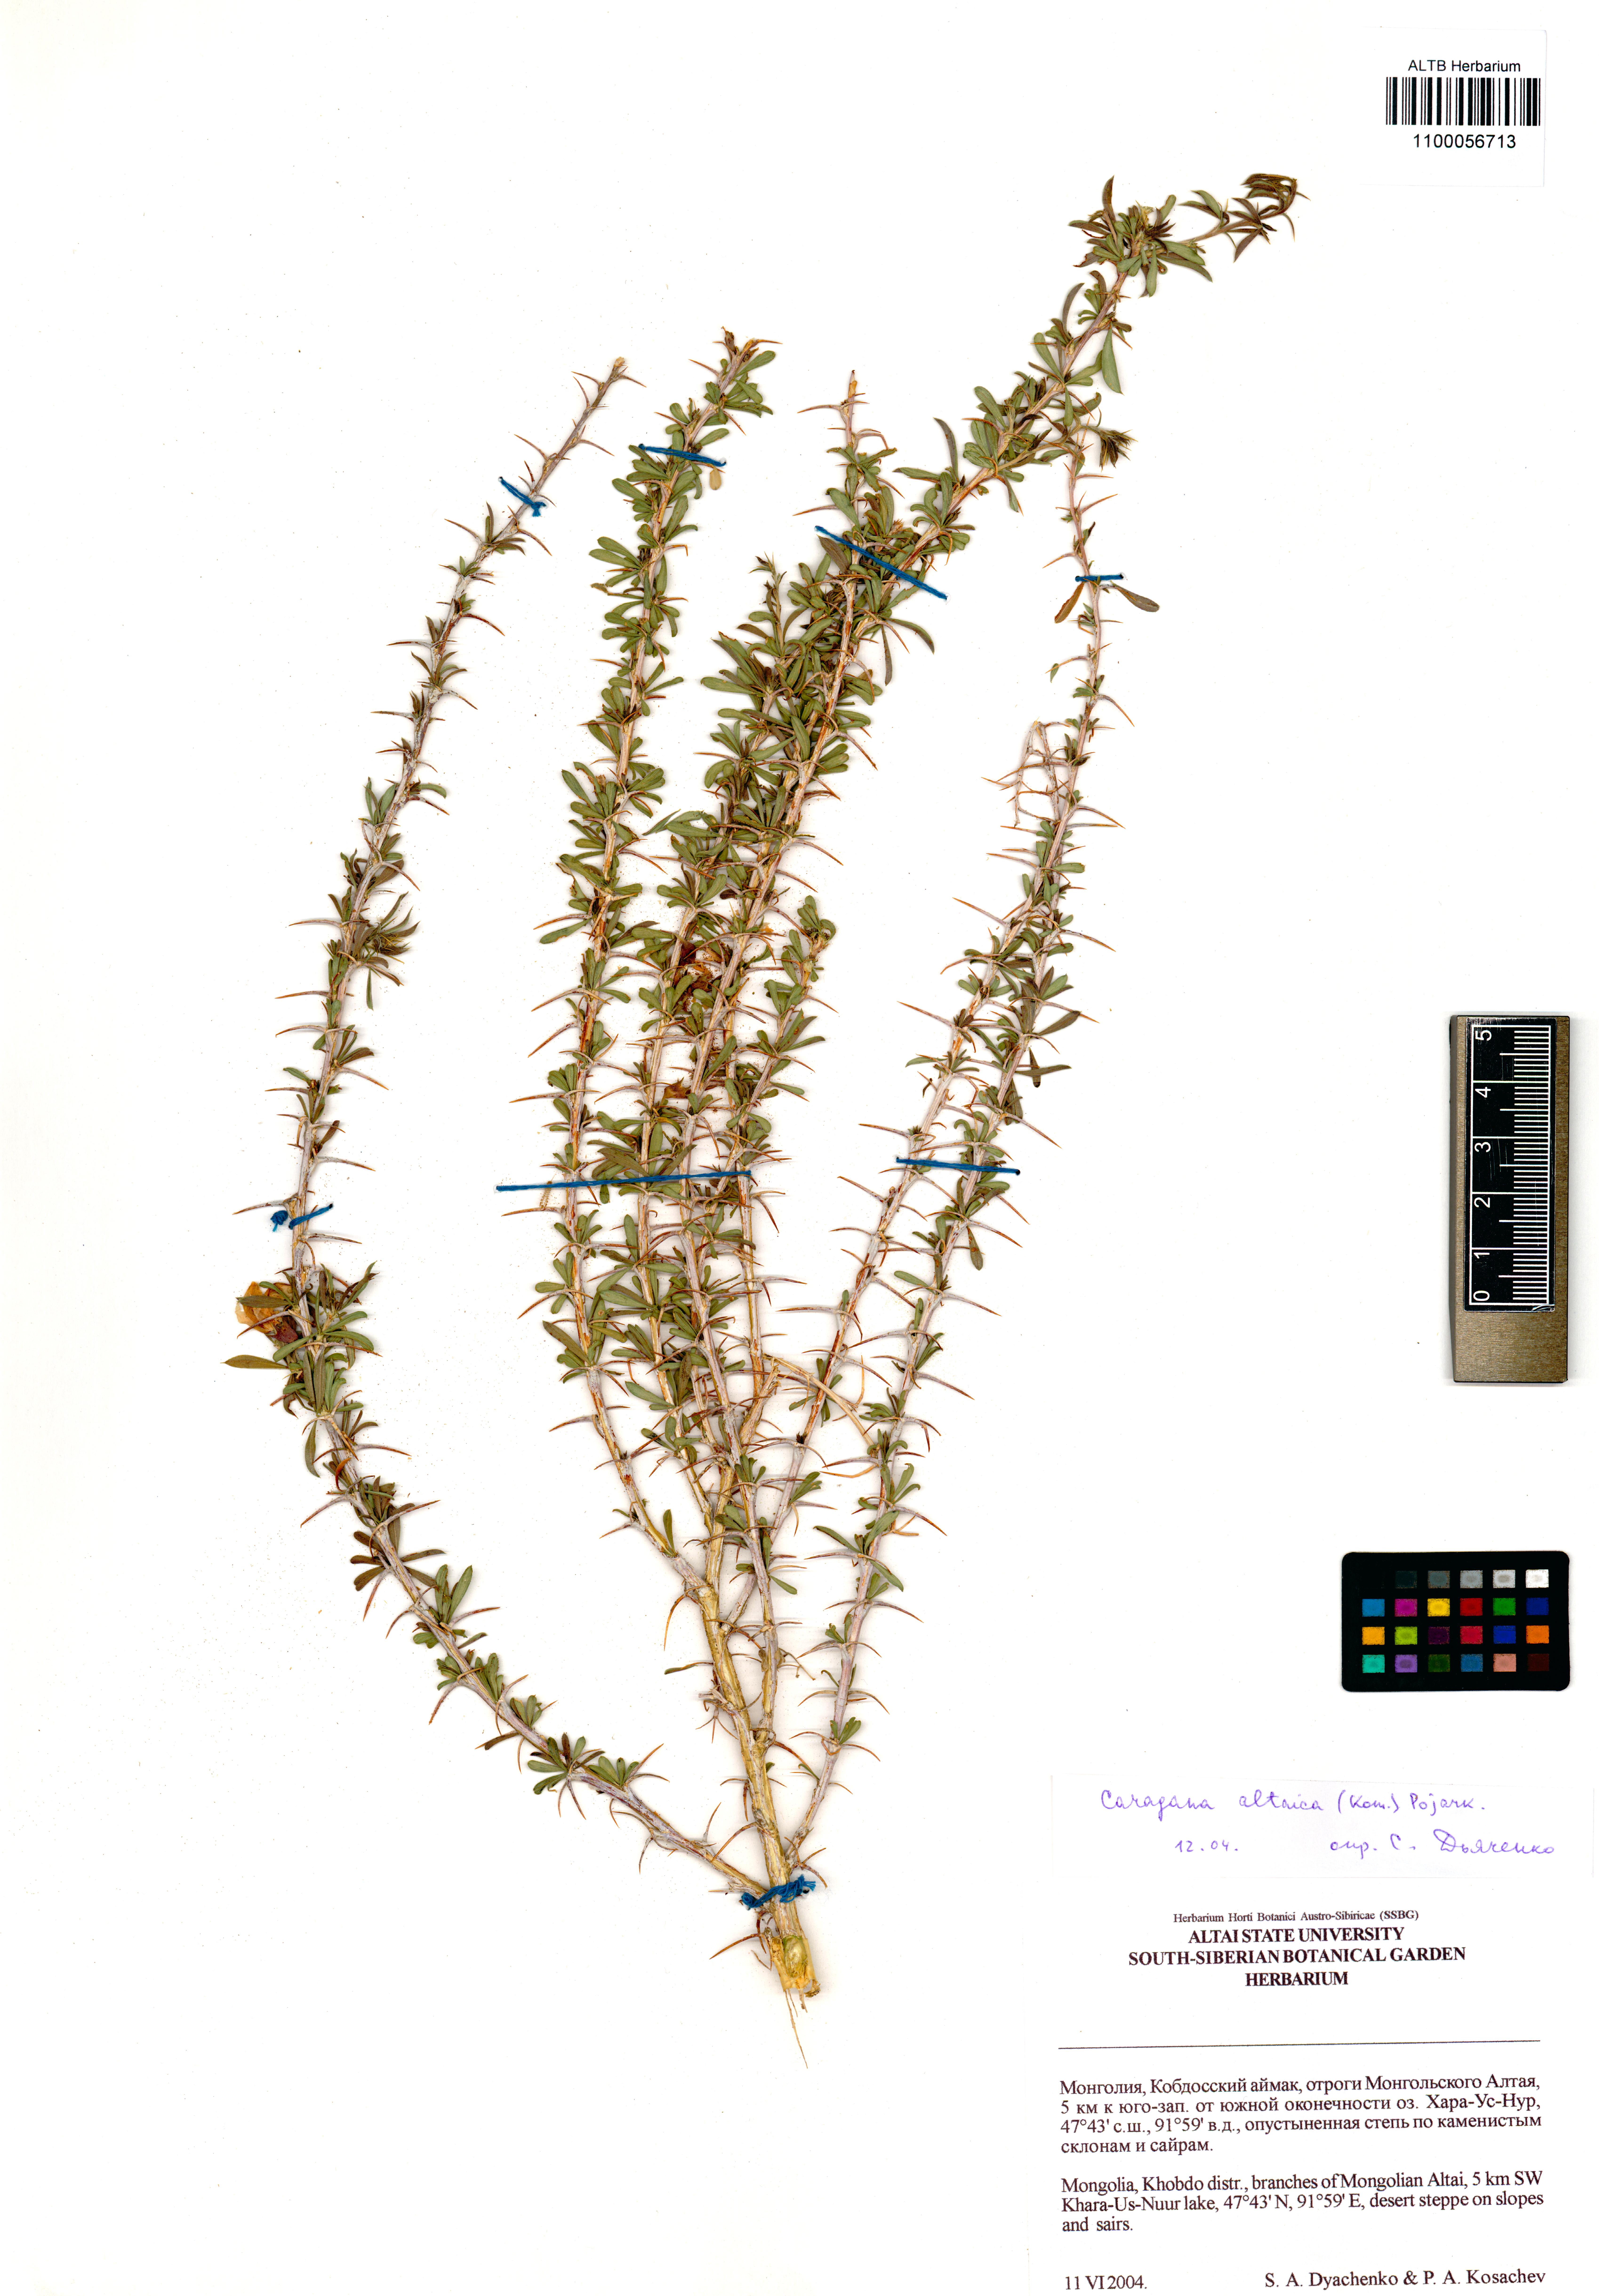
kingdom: Plantae
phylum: Tracheophyta
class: Magnoliopsida
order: Fabales
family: Fabaceae
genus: Caragana
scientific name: Caragana pygmaea
